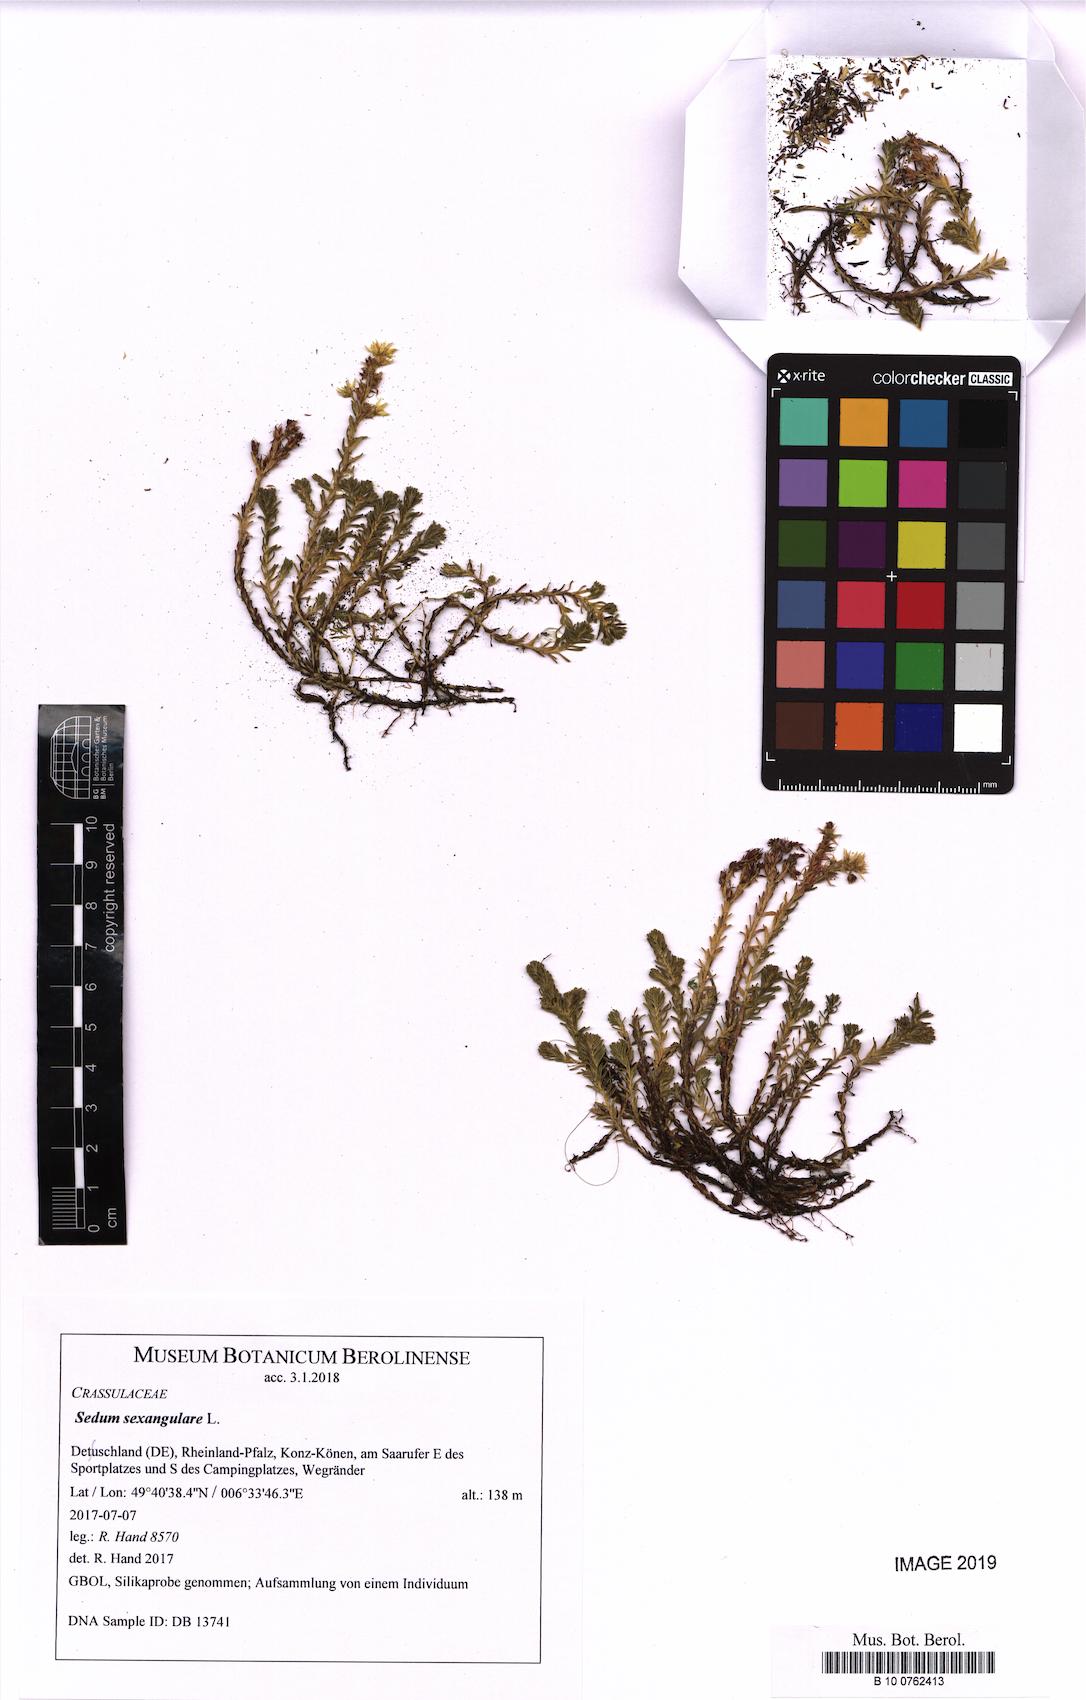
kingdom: Plantae
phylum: Tracheophyta
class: Magnoliopsida
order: Saxifragales
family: Crassulaceae
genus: Sedum
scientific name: Sedum sexangulare
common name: Tasteless stonecrop
